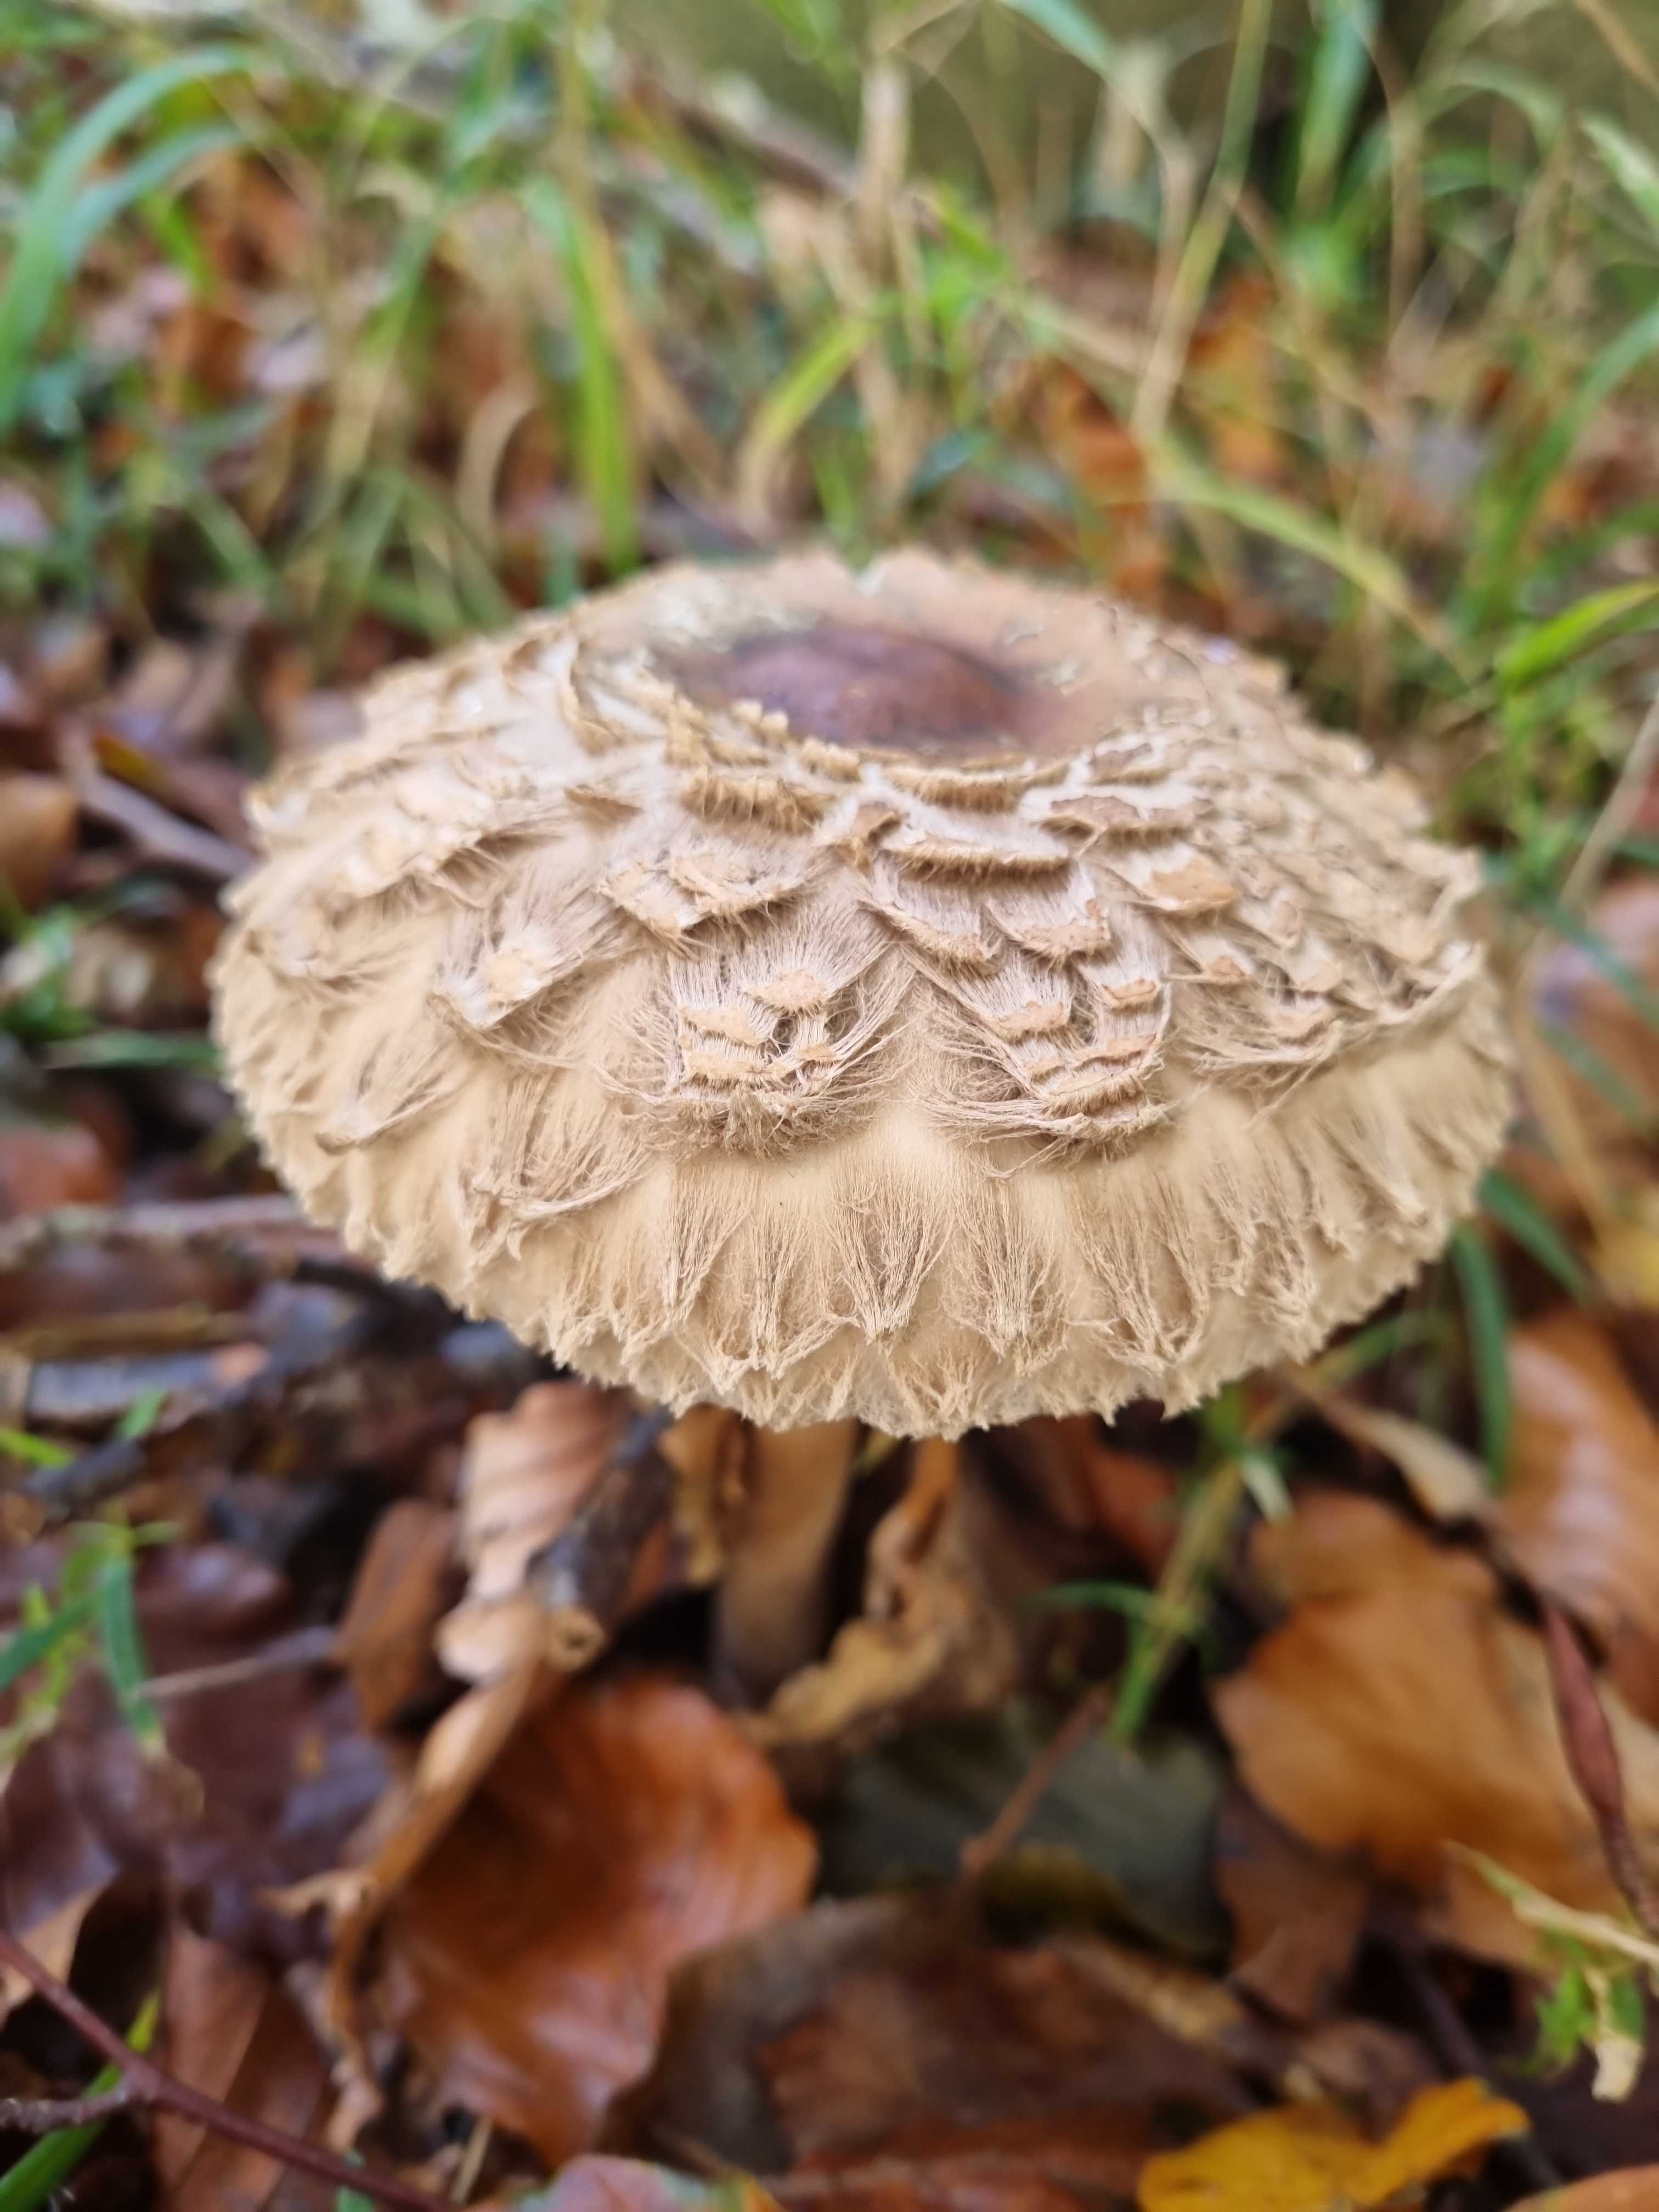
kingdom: Fungi
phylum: Basidiomycota
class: Agaricomycetes
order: Agaricales
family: Agaricaceae
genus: Chlorophyllum
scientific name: Chlorophyllum olivieri
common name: almindelig rabarberhat
